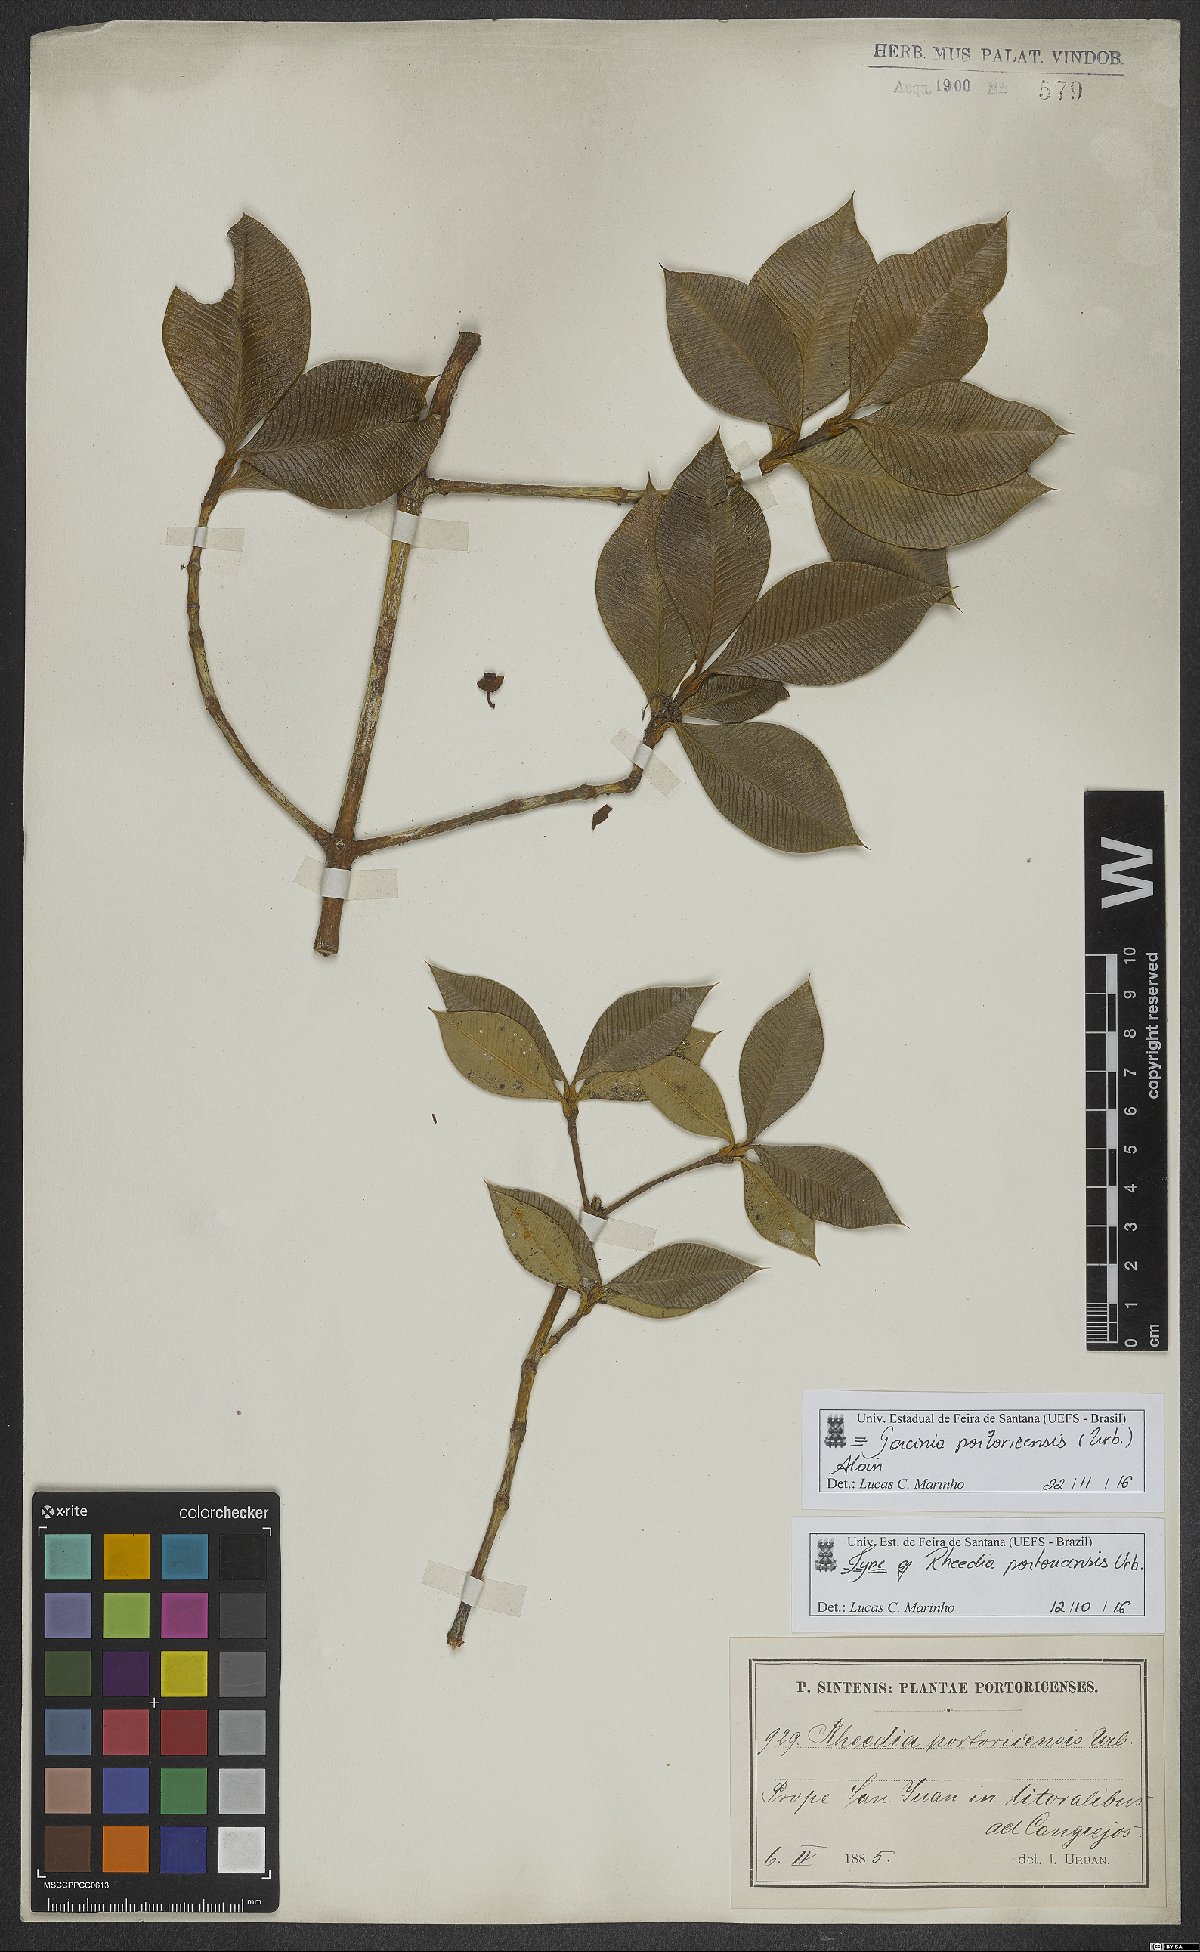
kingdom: Plantae
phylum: Tracheophyta
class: Magnoliopsida
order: Malpighiales
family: Clusiaceae
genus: Garcinia
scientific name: Garcinia portoricensis
